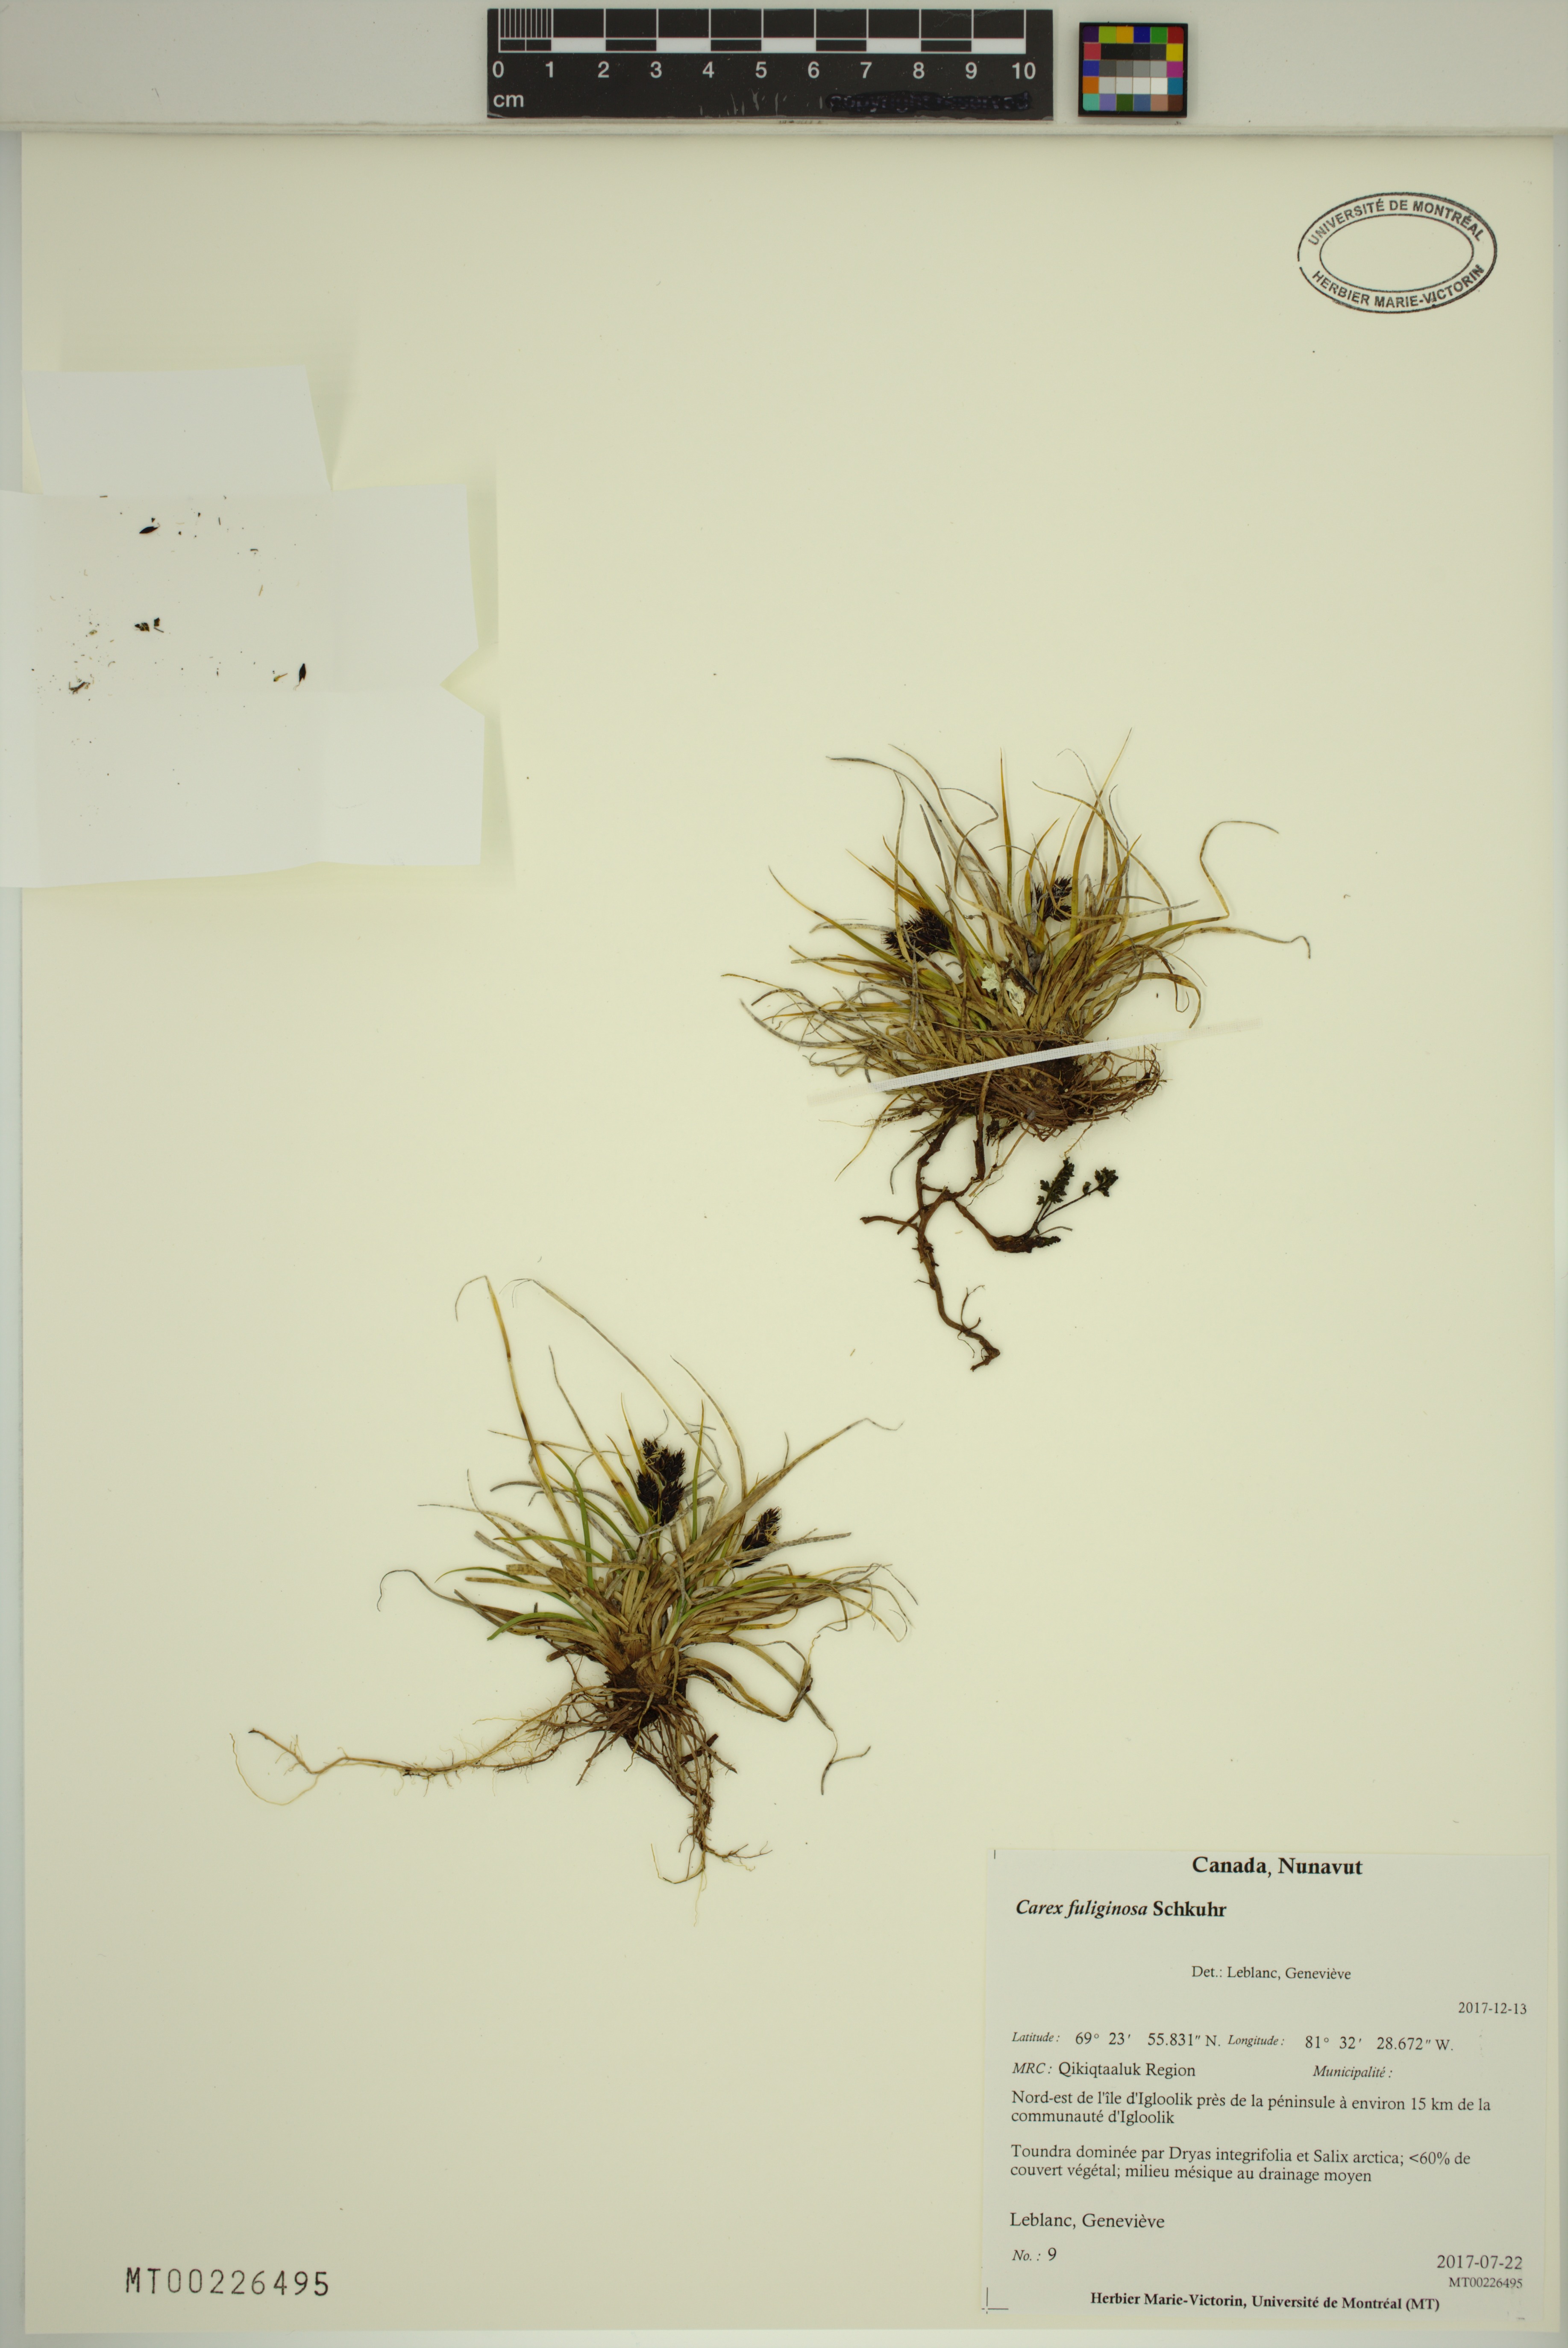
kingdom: Plantae
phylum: Tracheophyta
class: Liliopsida
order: Poales
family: Cyperaceae
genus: Carex
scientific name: Carex fuliginosa
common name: Few-flowered sedge
